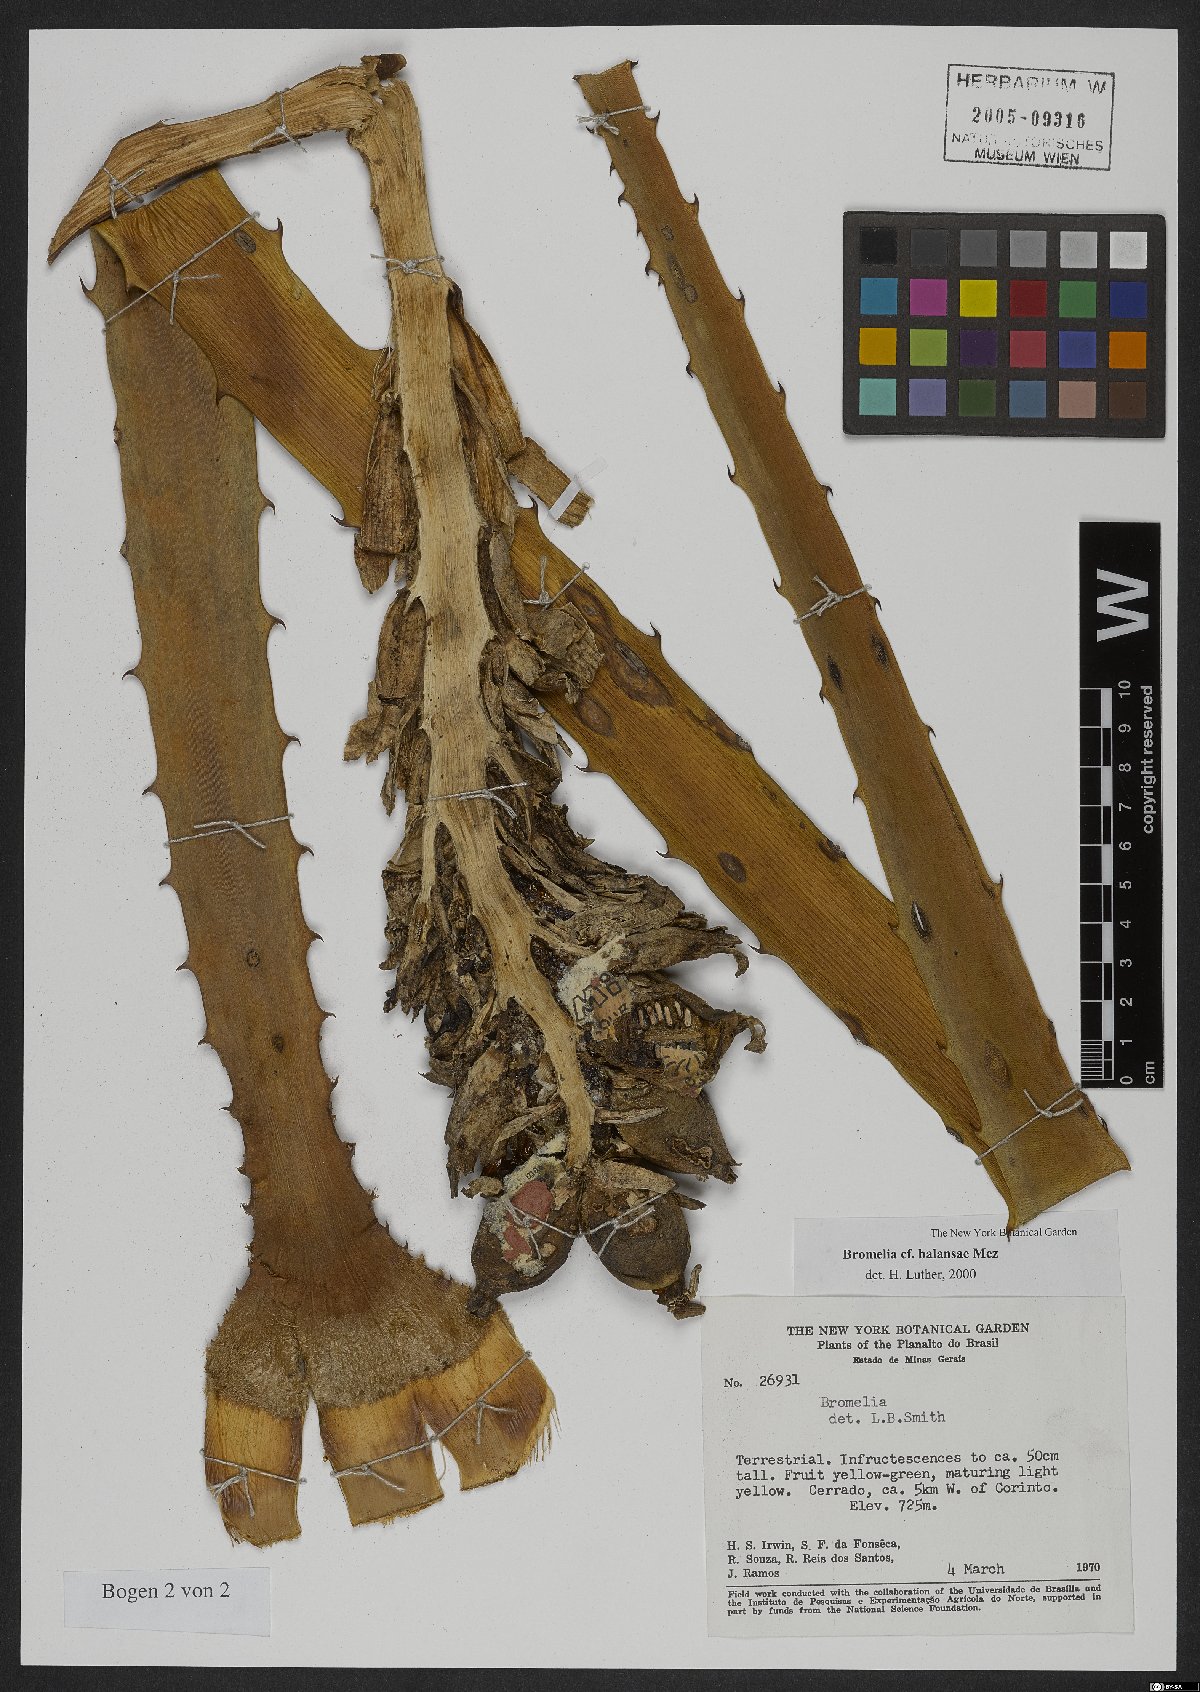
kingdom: Plantae
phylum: Tracheophyta
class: Liliopsida
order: Poales
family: Bromeliaceae
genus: Bromelia
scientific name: Bromelia balansae
